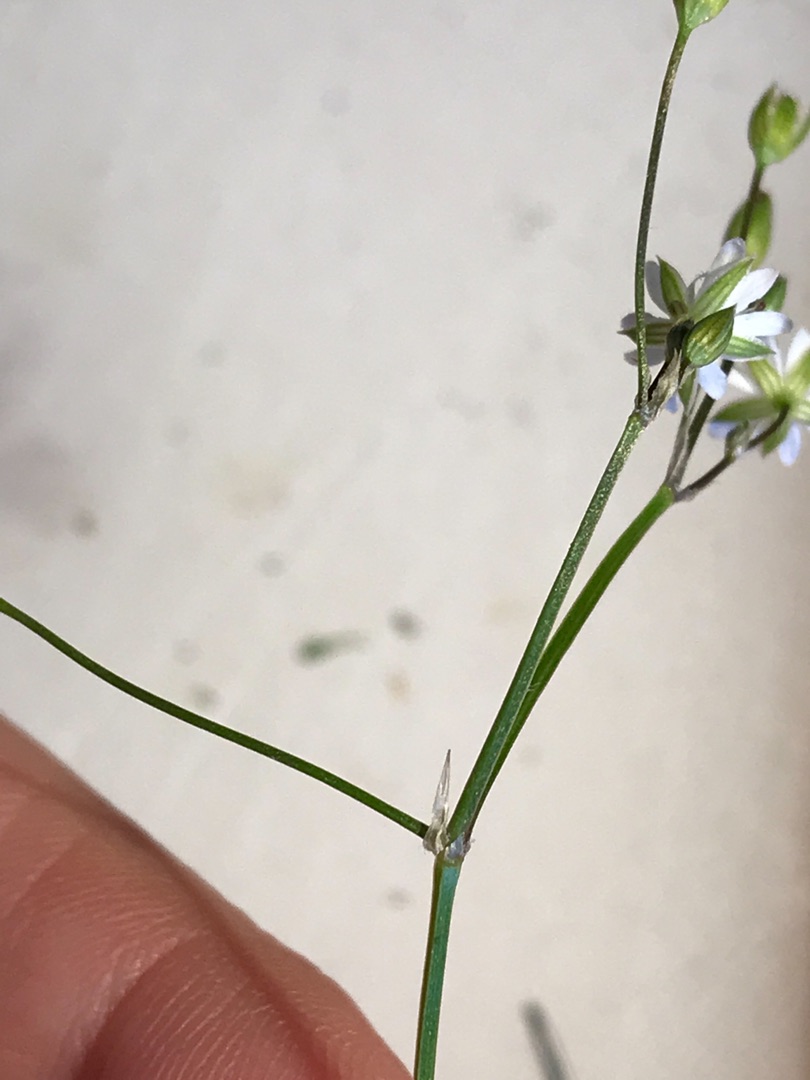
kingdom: Plantae
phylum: Tracheophyta
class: Magnoliopsida
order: Caryophyllales
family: Caryophyllaceae
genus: Stellaria
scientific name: Stellaria graminea
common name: Græsbladet fladstjerne
